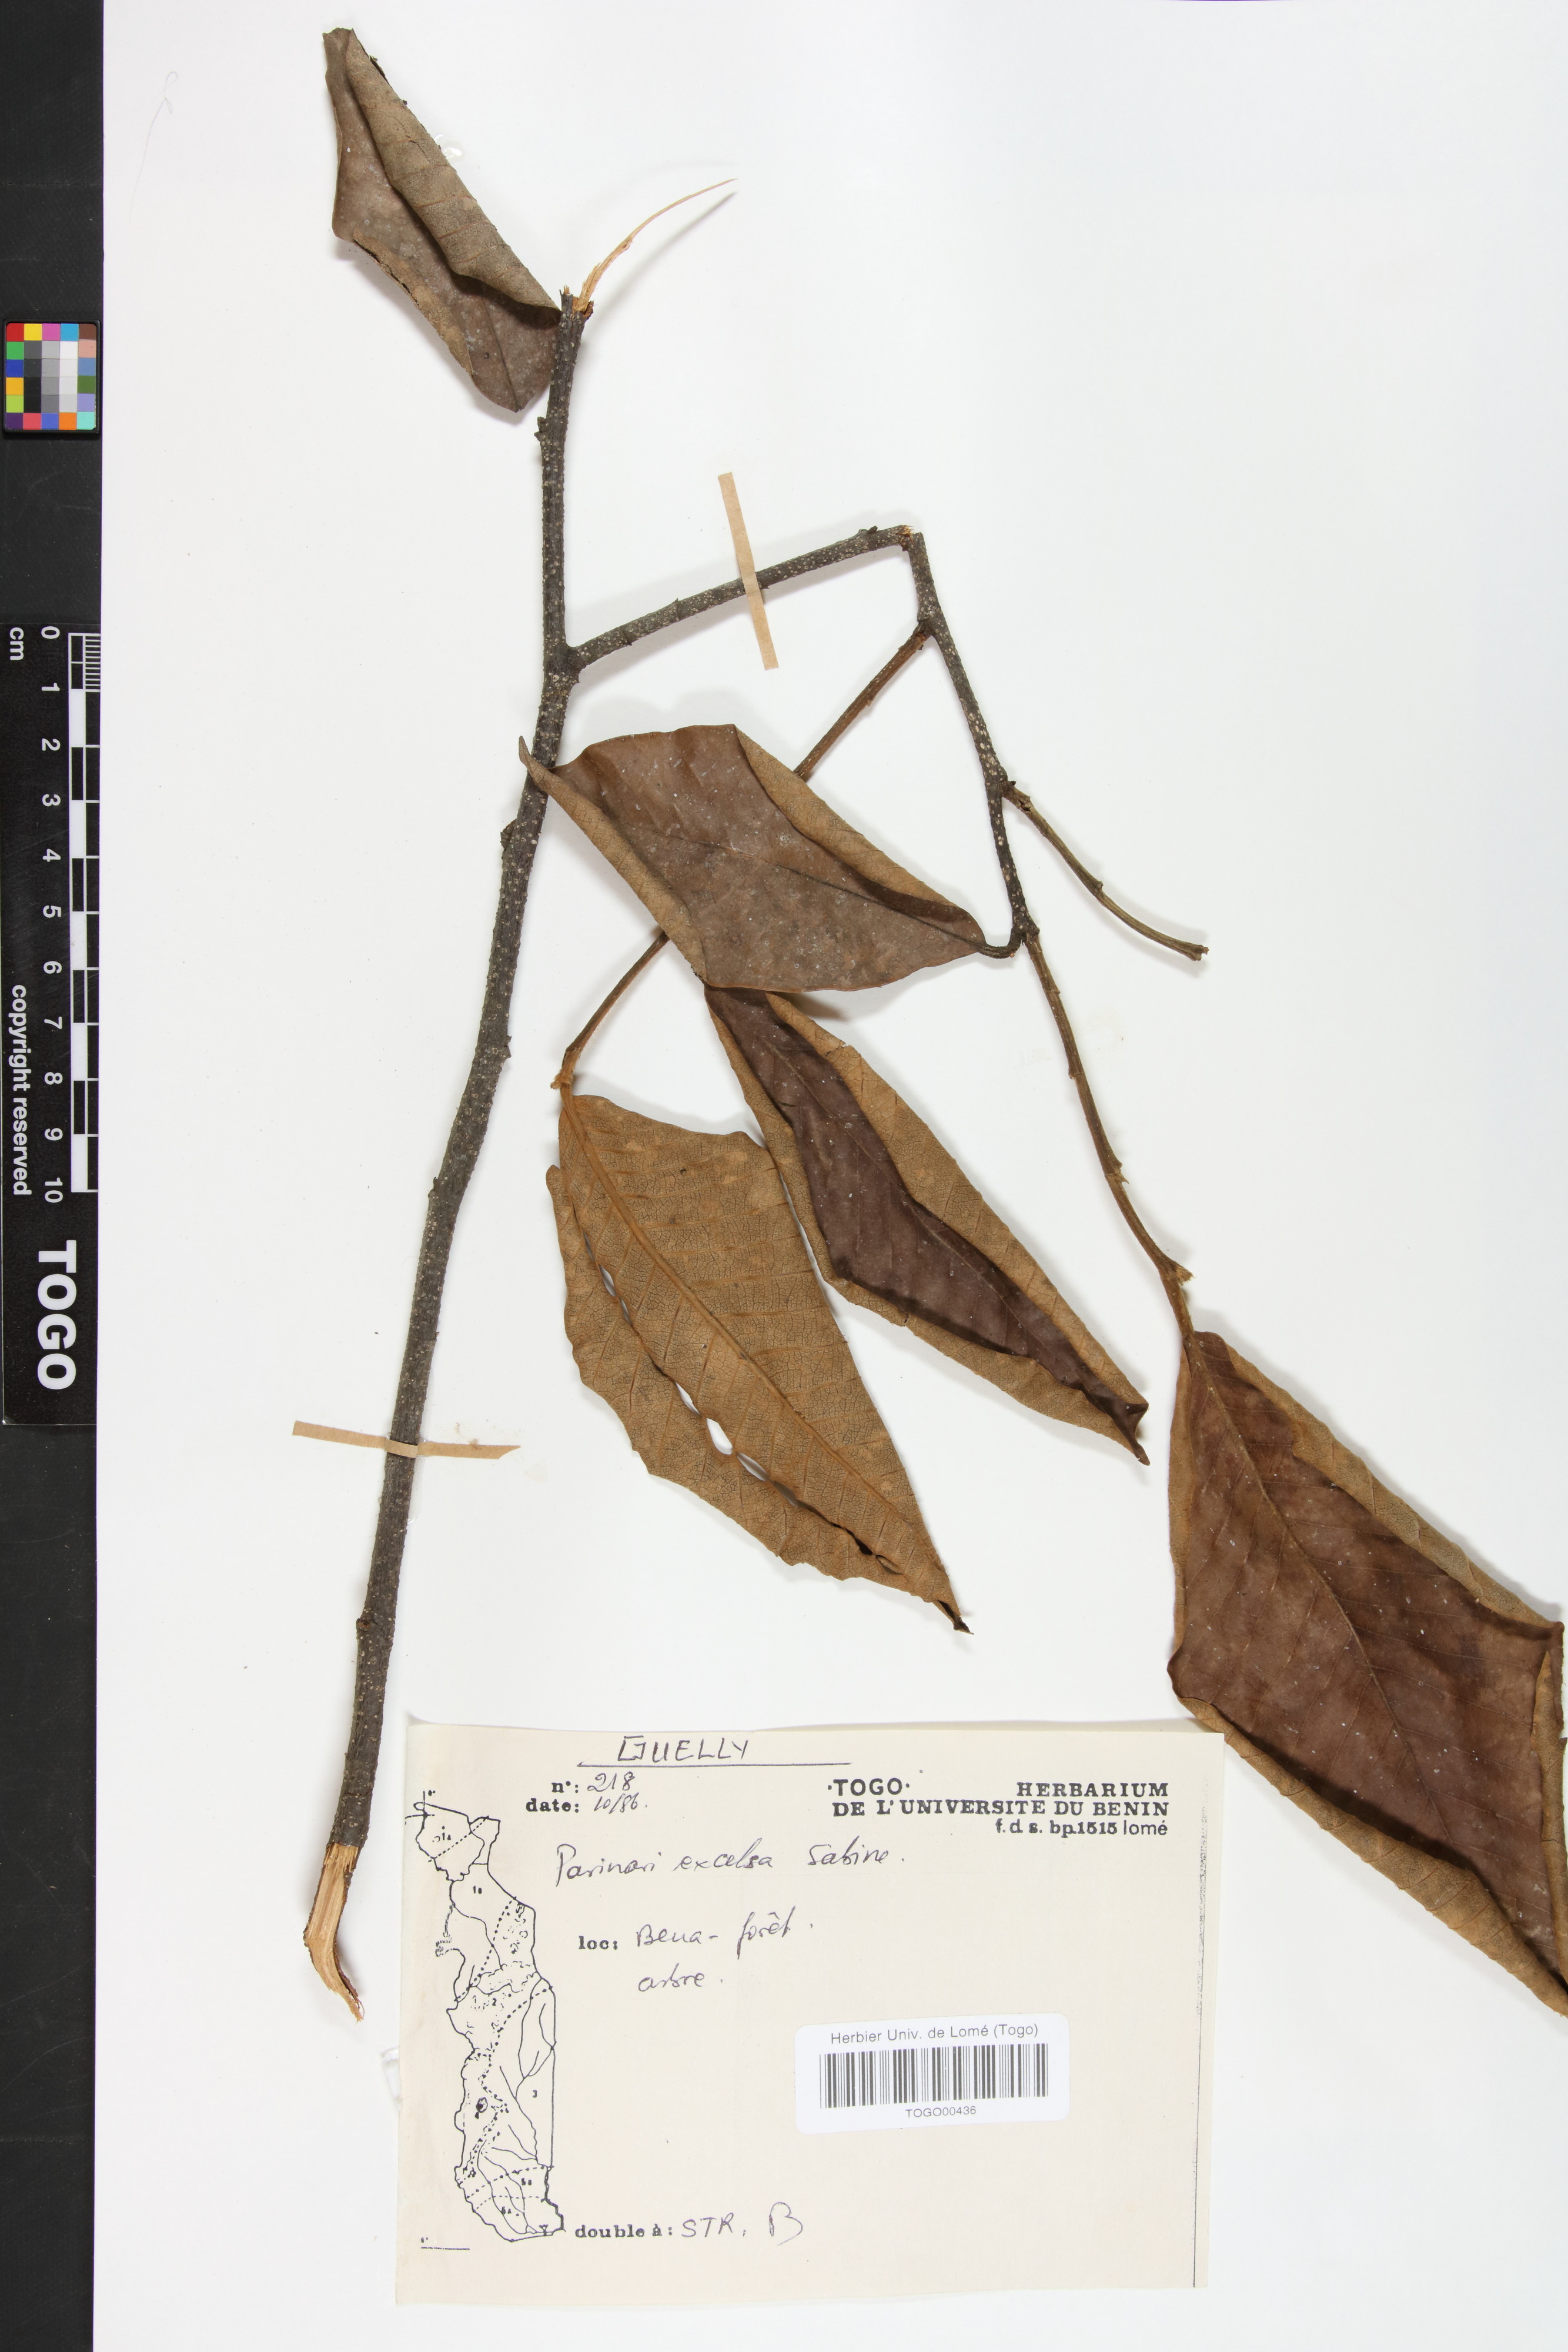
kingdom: Plantae
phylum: Tracheophyta
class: Magnoliopsida
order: Malpighiales
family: Chrysobalanaceae
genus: Parinari
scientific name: Parinari excelsa
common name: Guinea-plum
